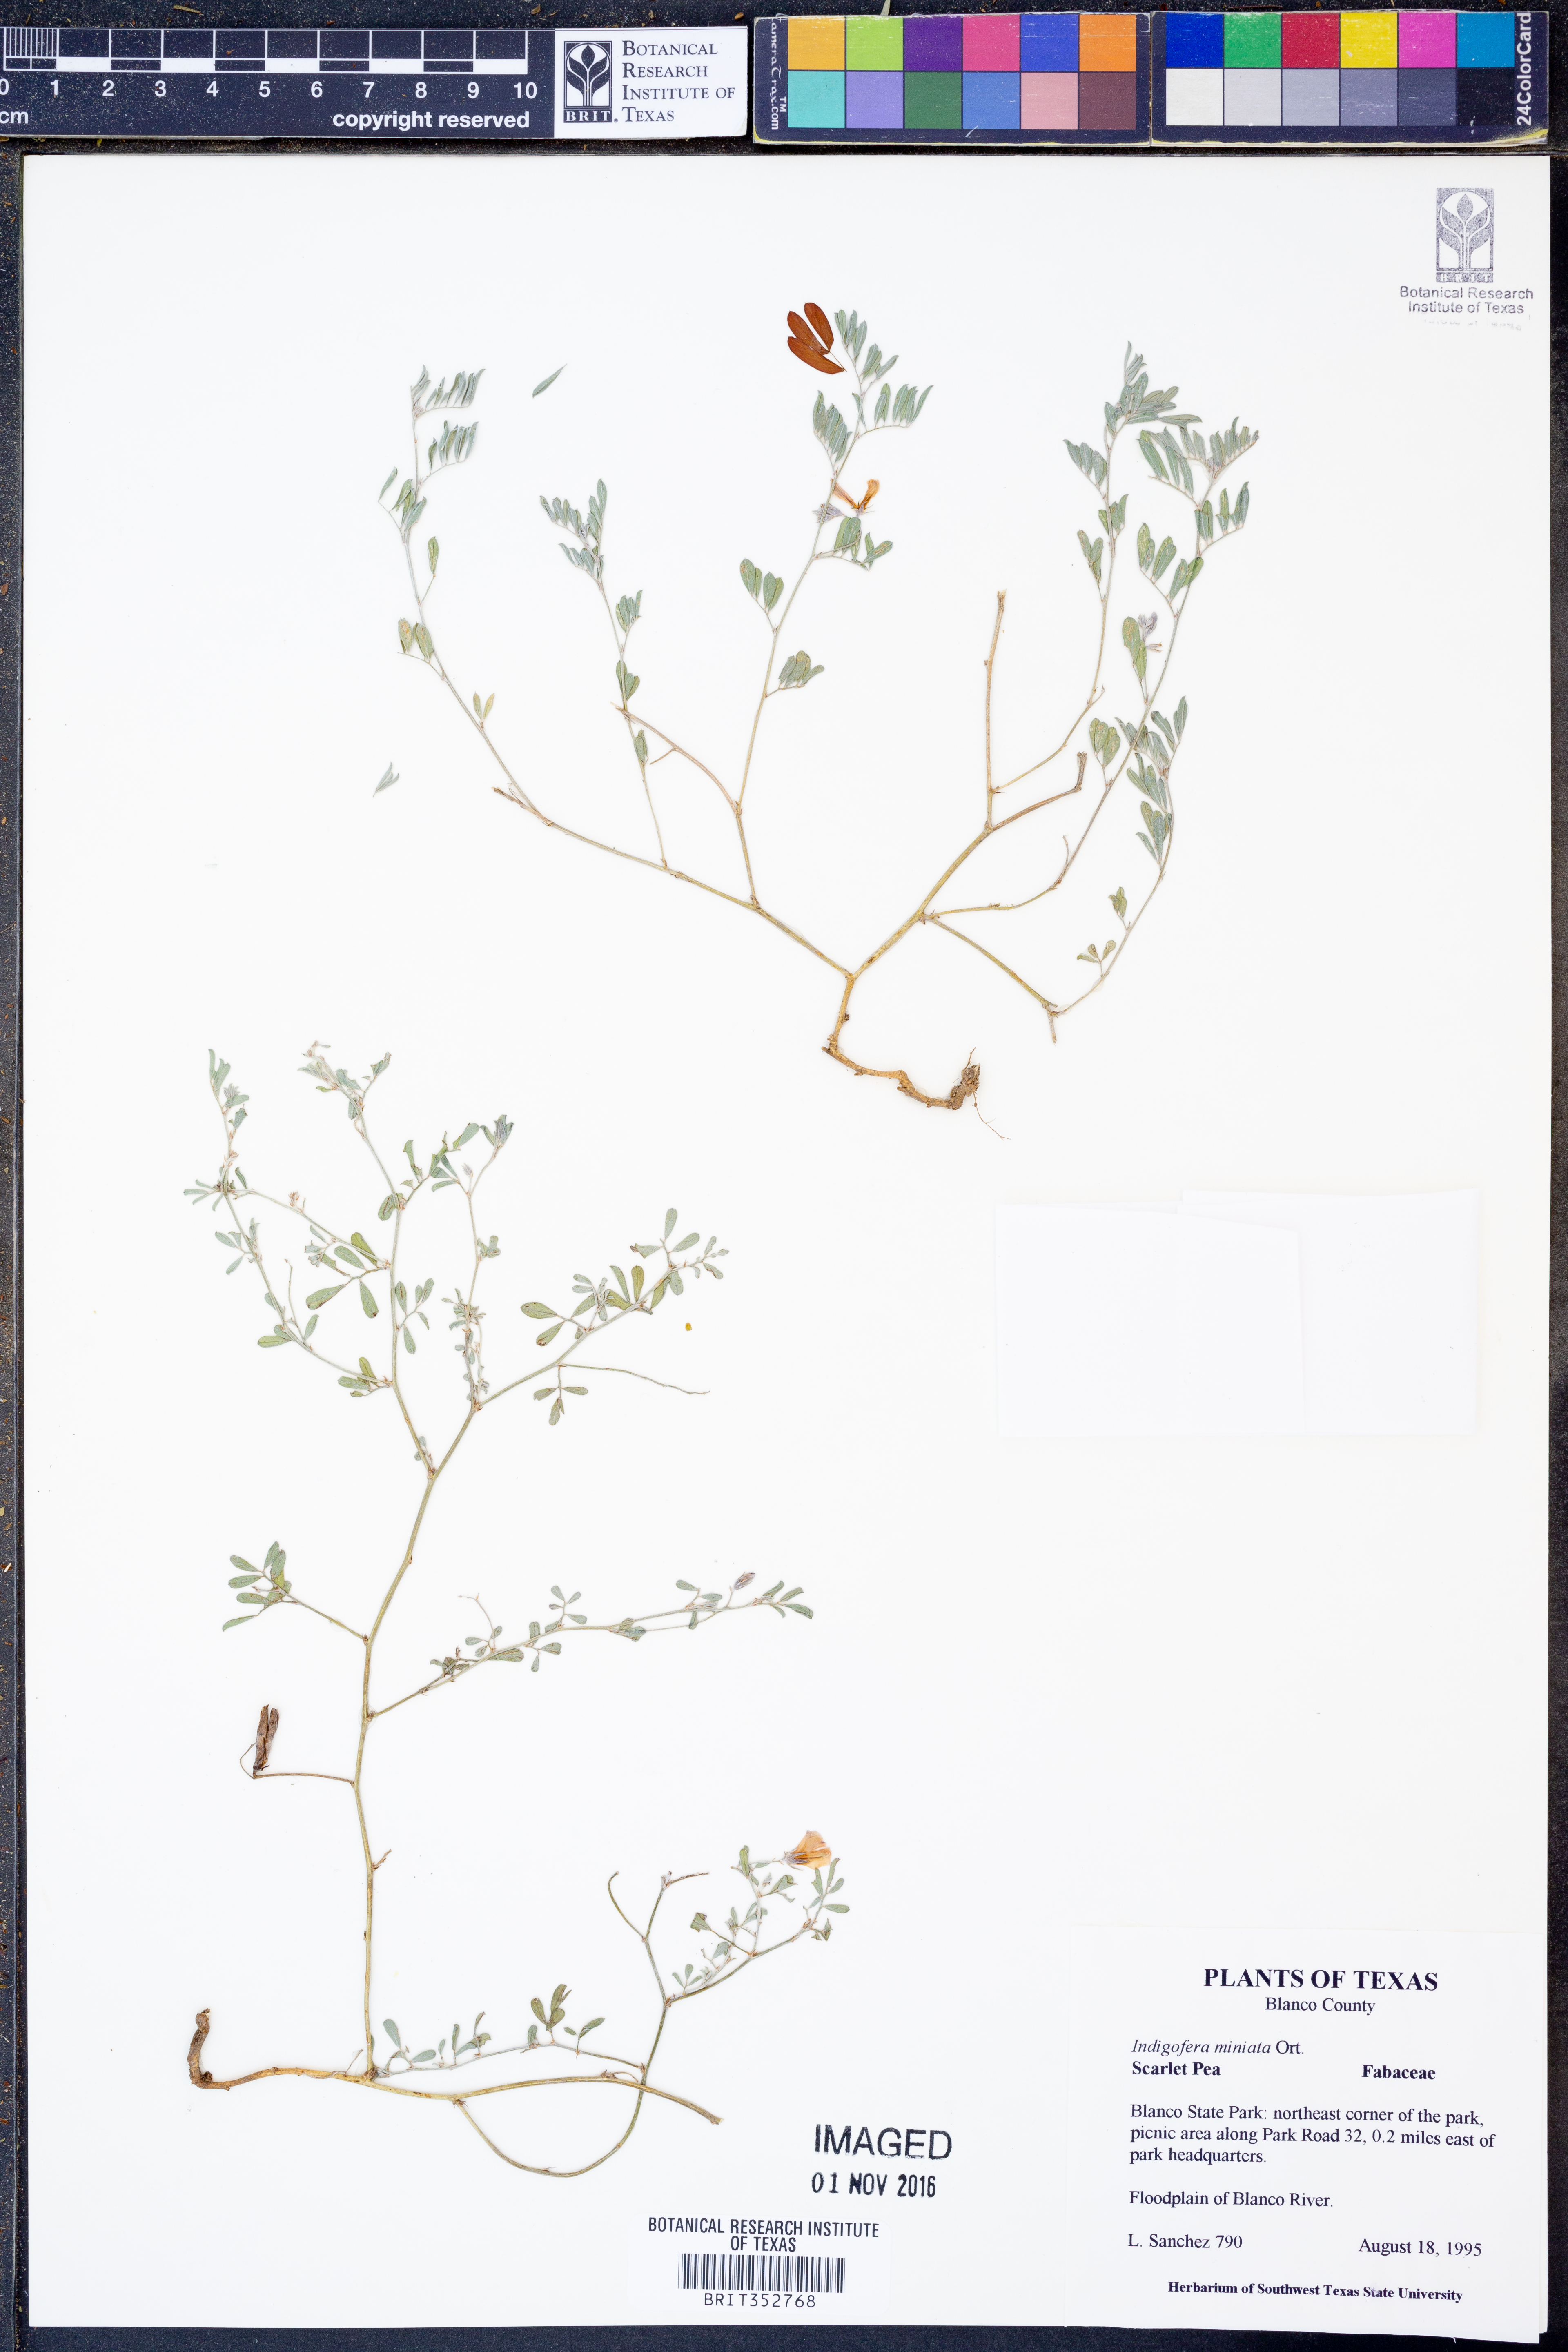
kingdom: Plantae
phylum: Tracheophyta
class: Magnoliopsida
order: Fabales
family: Fabaceae
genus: Indigofera
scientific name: Indigofera miniata
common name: Coast indigo
